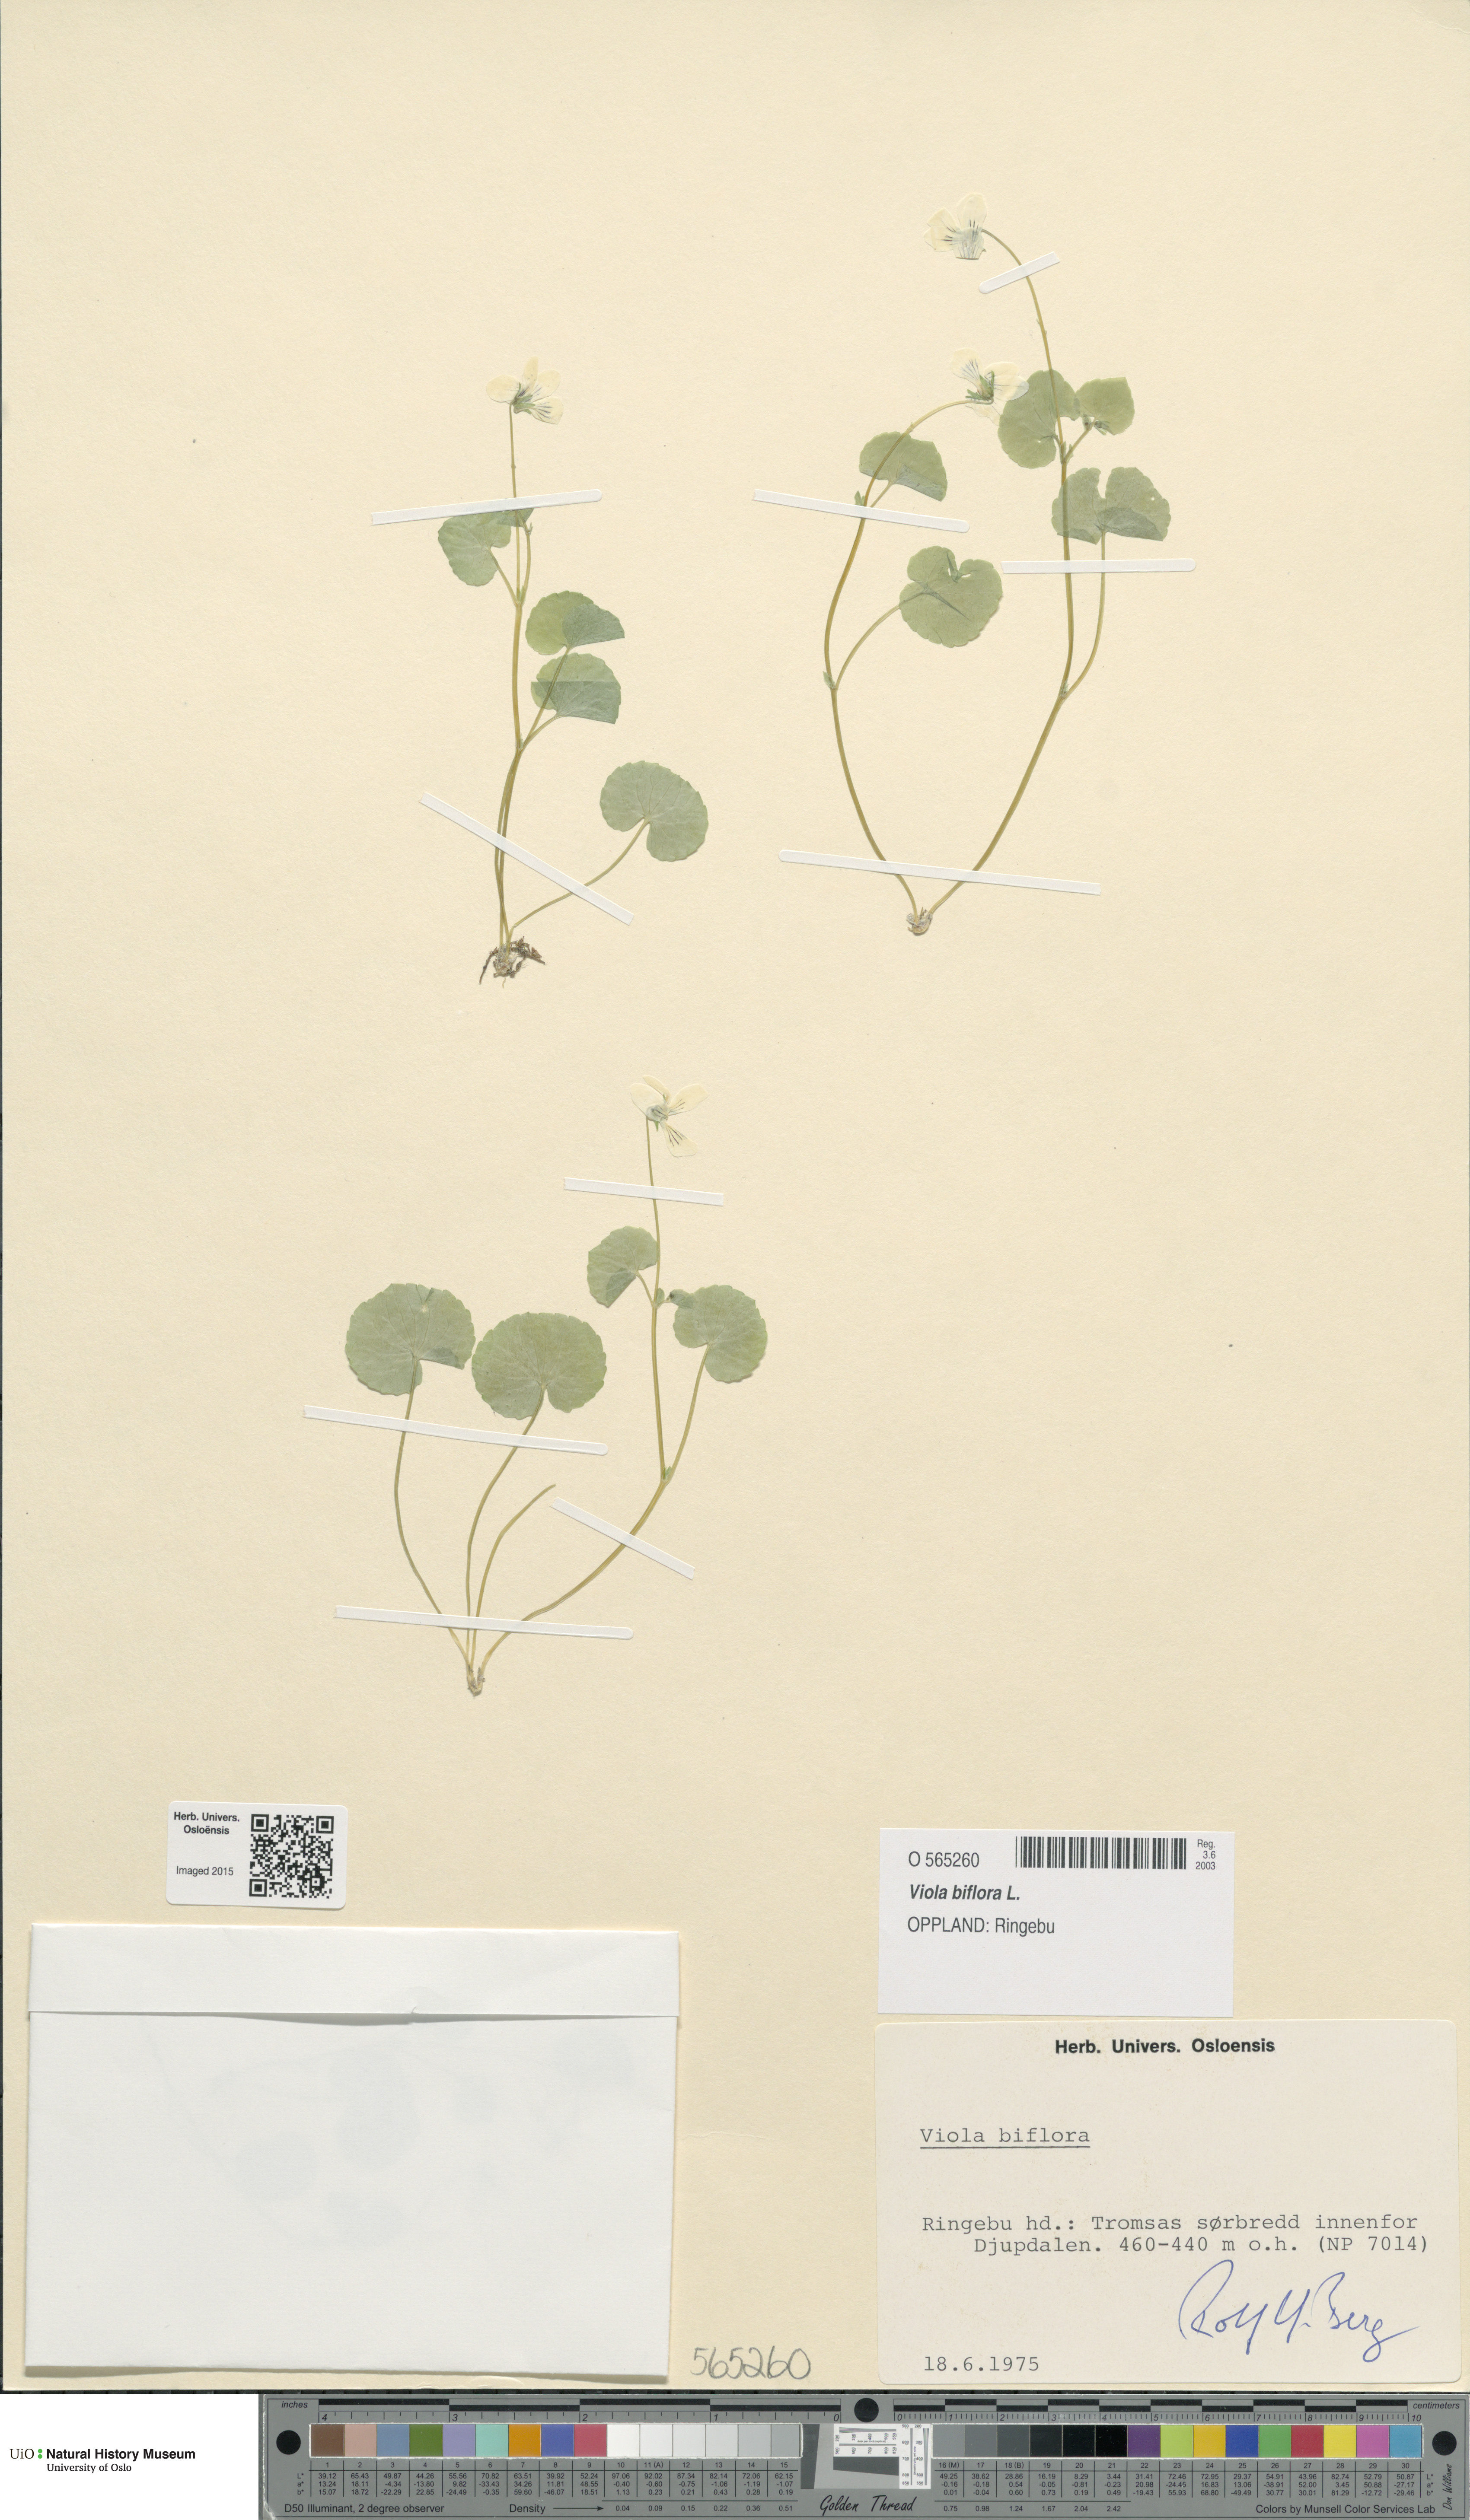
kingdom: Plantae
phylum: Tracheophyta
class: Magnoliopsida
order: Malpighiales
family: Violaceae
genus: Viola
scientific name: Viola biflora
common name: Alpine yellow violet
